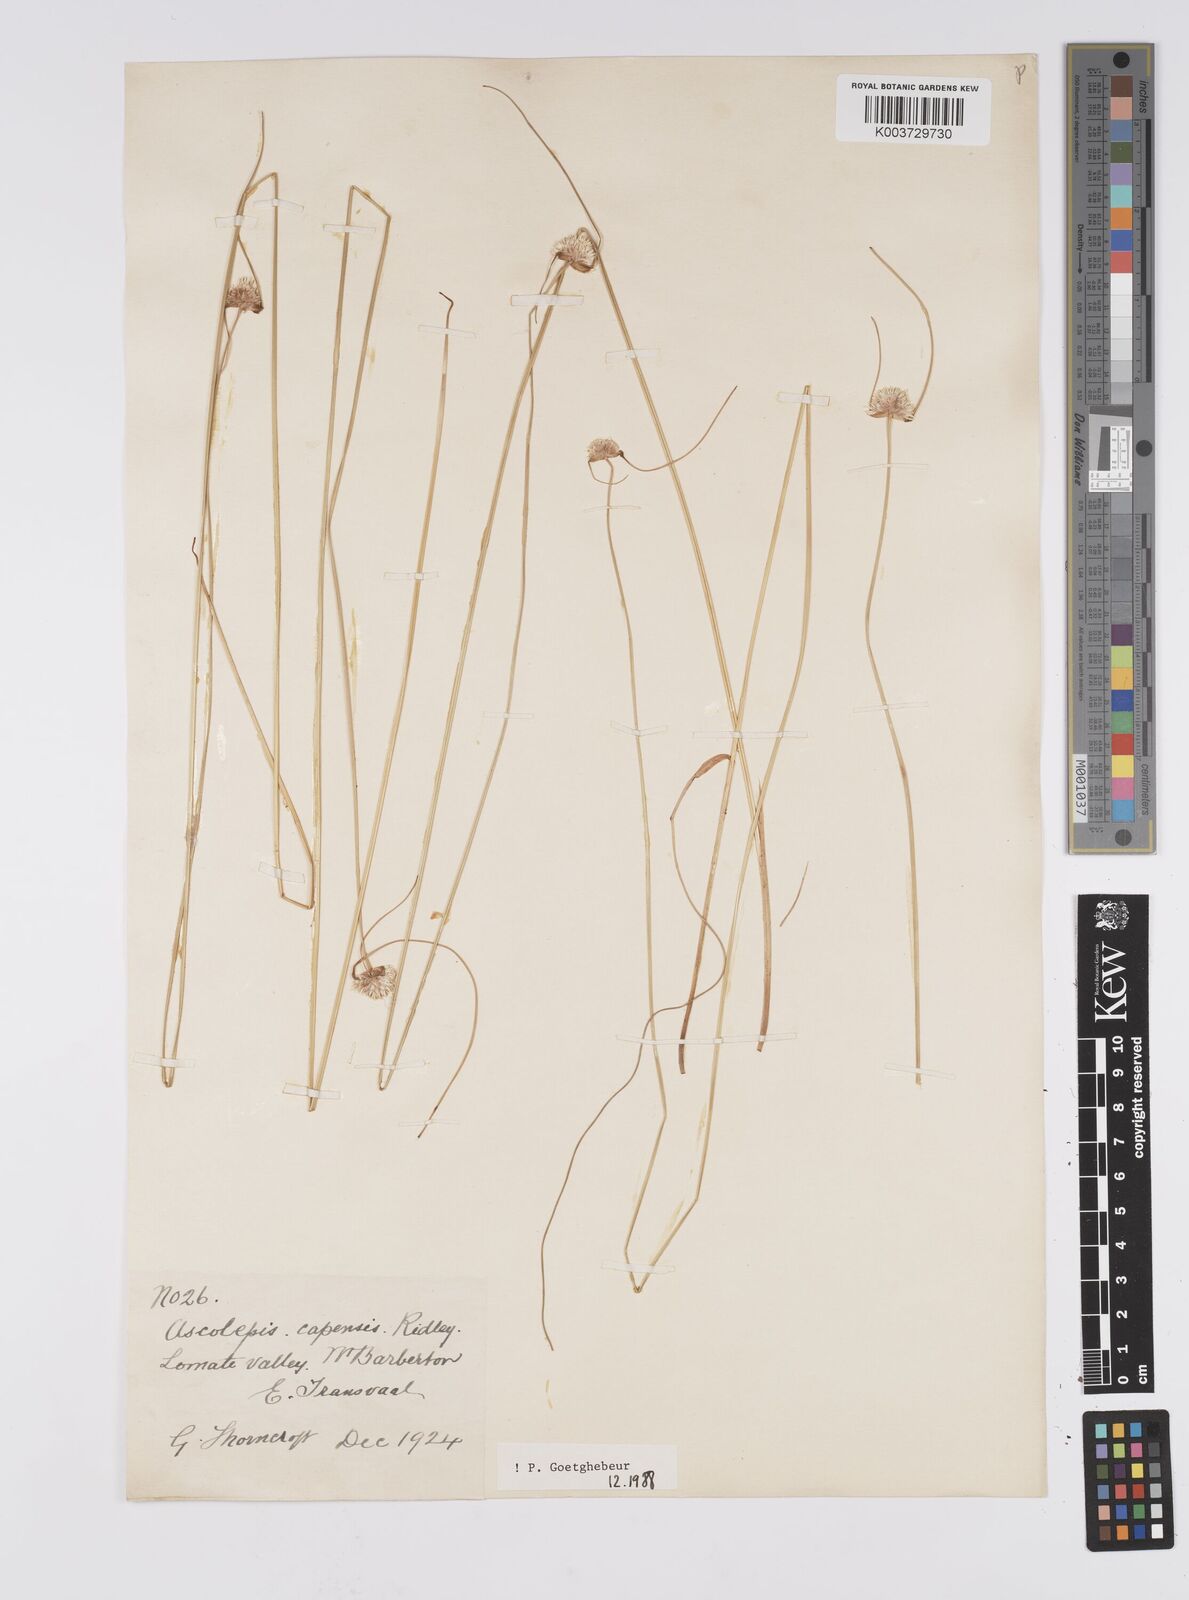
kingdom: Plantae
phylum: Tracheophyta
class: Liliopsida
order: Poales
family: Cyperaceae
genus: Cyperus
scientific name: Cyperus capensis
